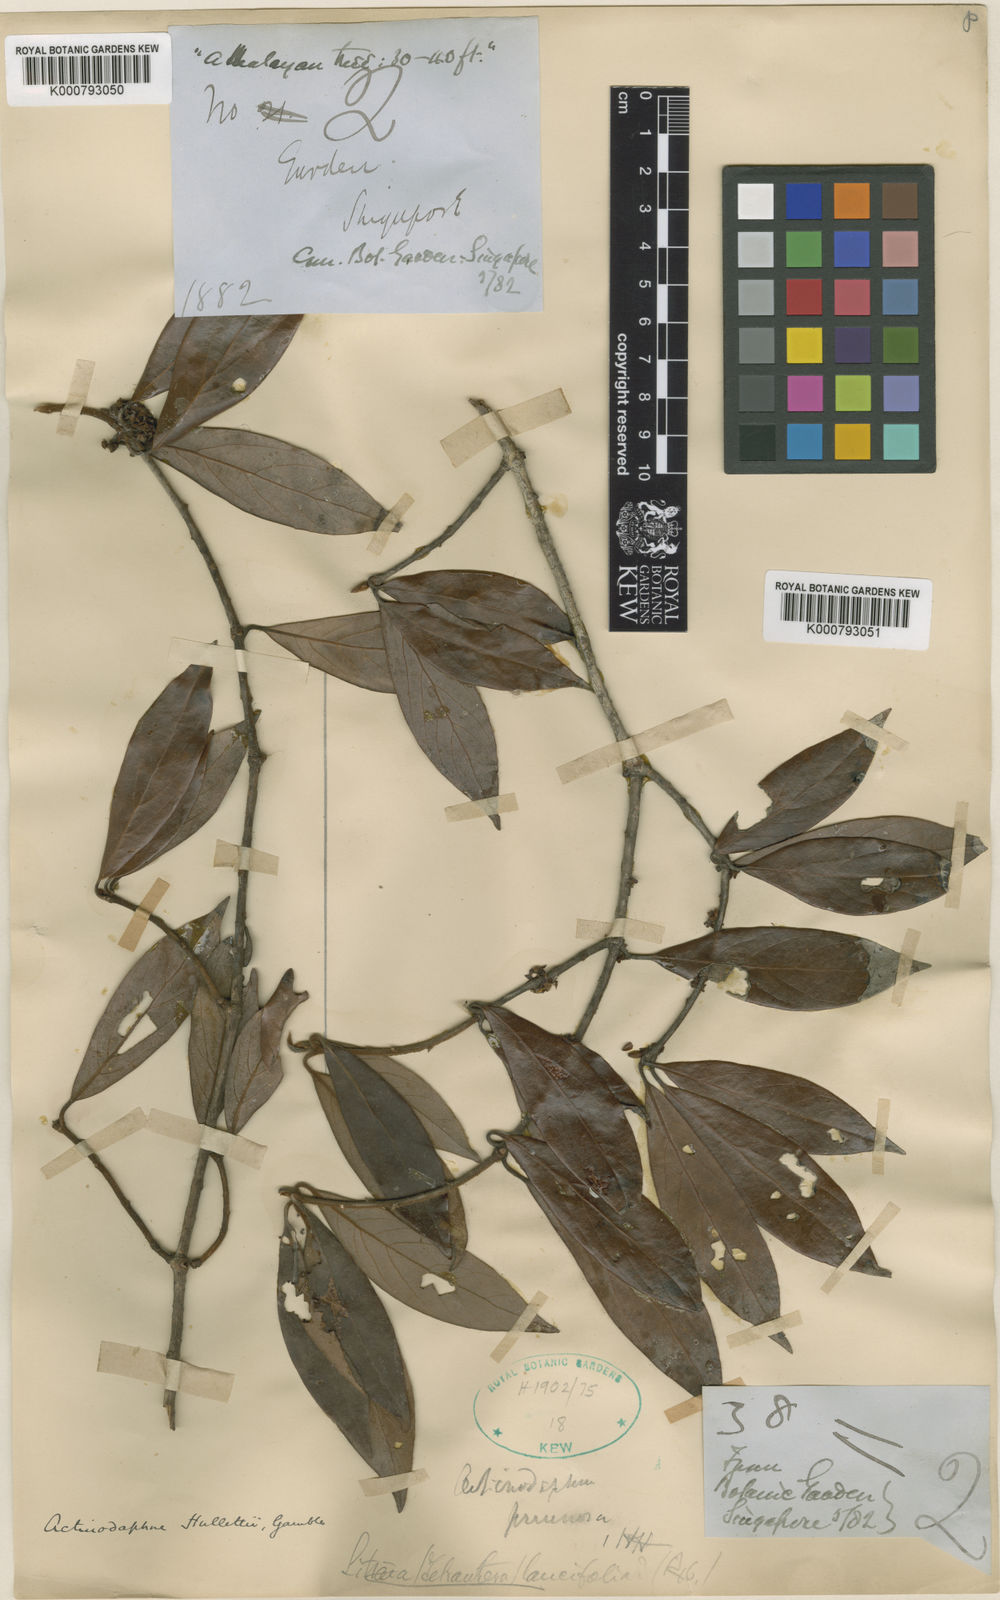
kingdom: Plantae
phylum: Tracheophyta
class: Magnoliopsida
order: Laurales
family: Lauraceae
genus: Actinodaphne
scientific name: Actinodaphne malaccensis
